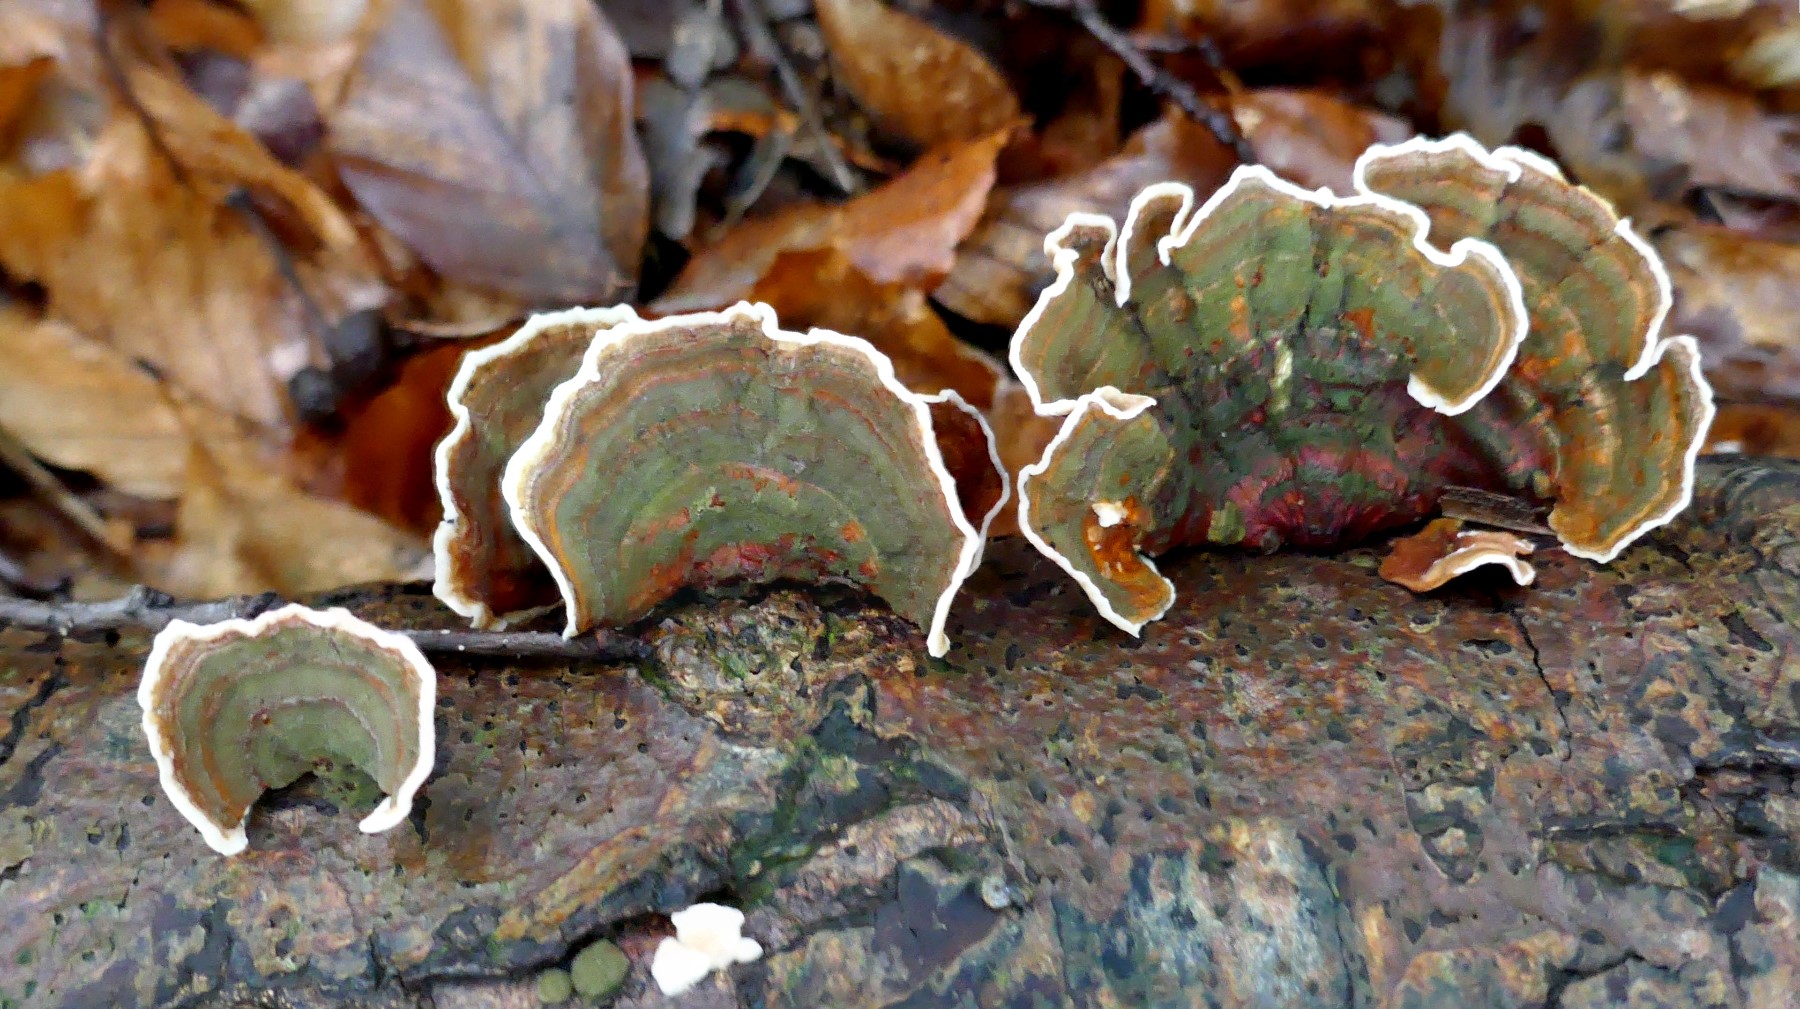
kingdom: Fungi
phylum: Basidiomycota
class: Agaricomycetes
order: Russulales
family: Stereaceae
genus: Stereum
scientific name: Stereum subtomentosum
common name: smuk lædersvamp
